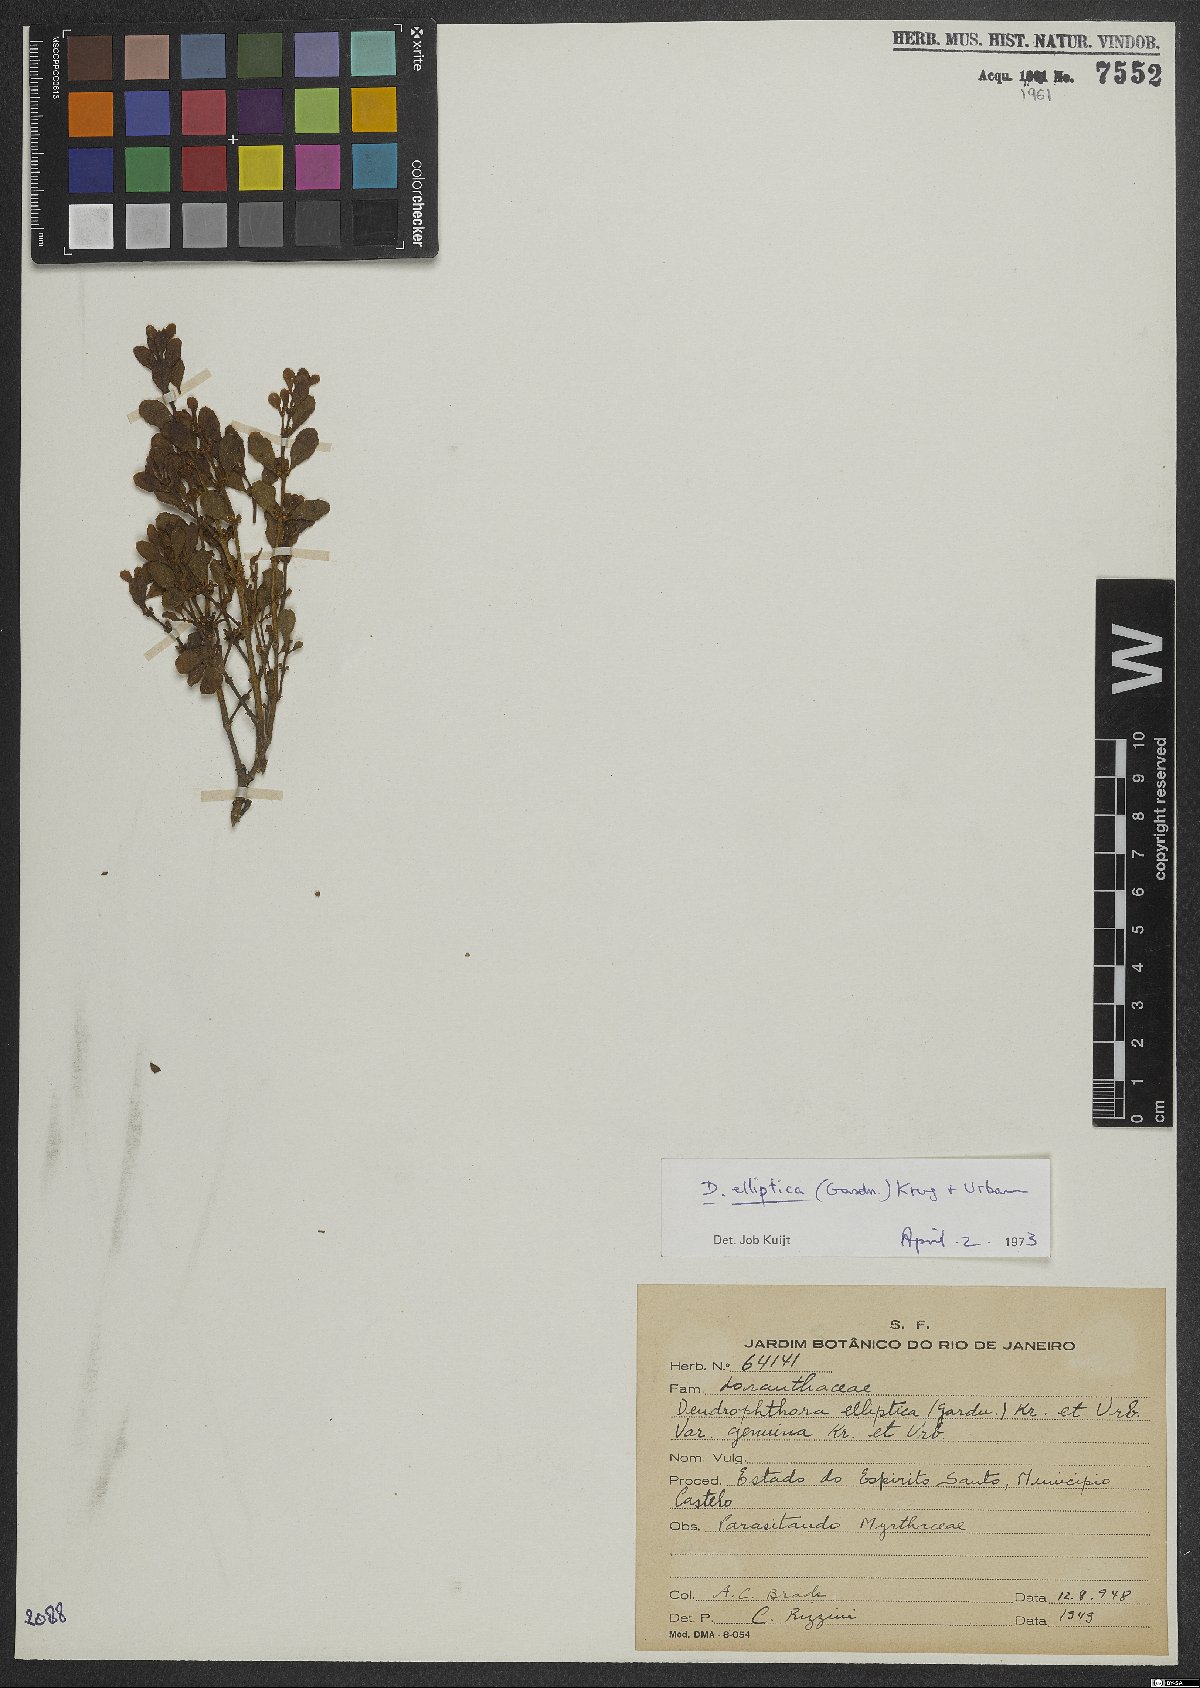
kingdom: Plantae
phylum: Tracheophyta
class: Magnoliopsida
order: Santalales
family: Viscaceae
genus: Dendrophthora
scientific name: Dendrophthora elliptica
